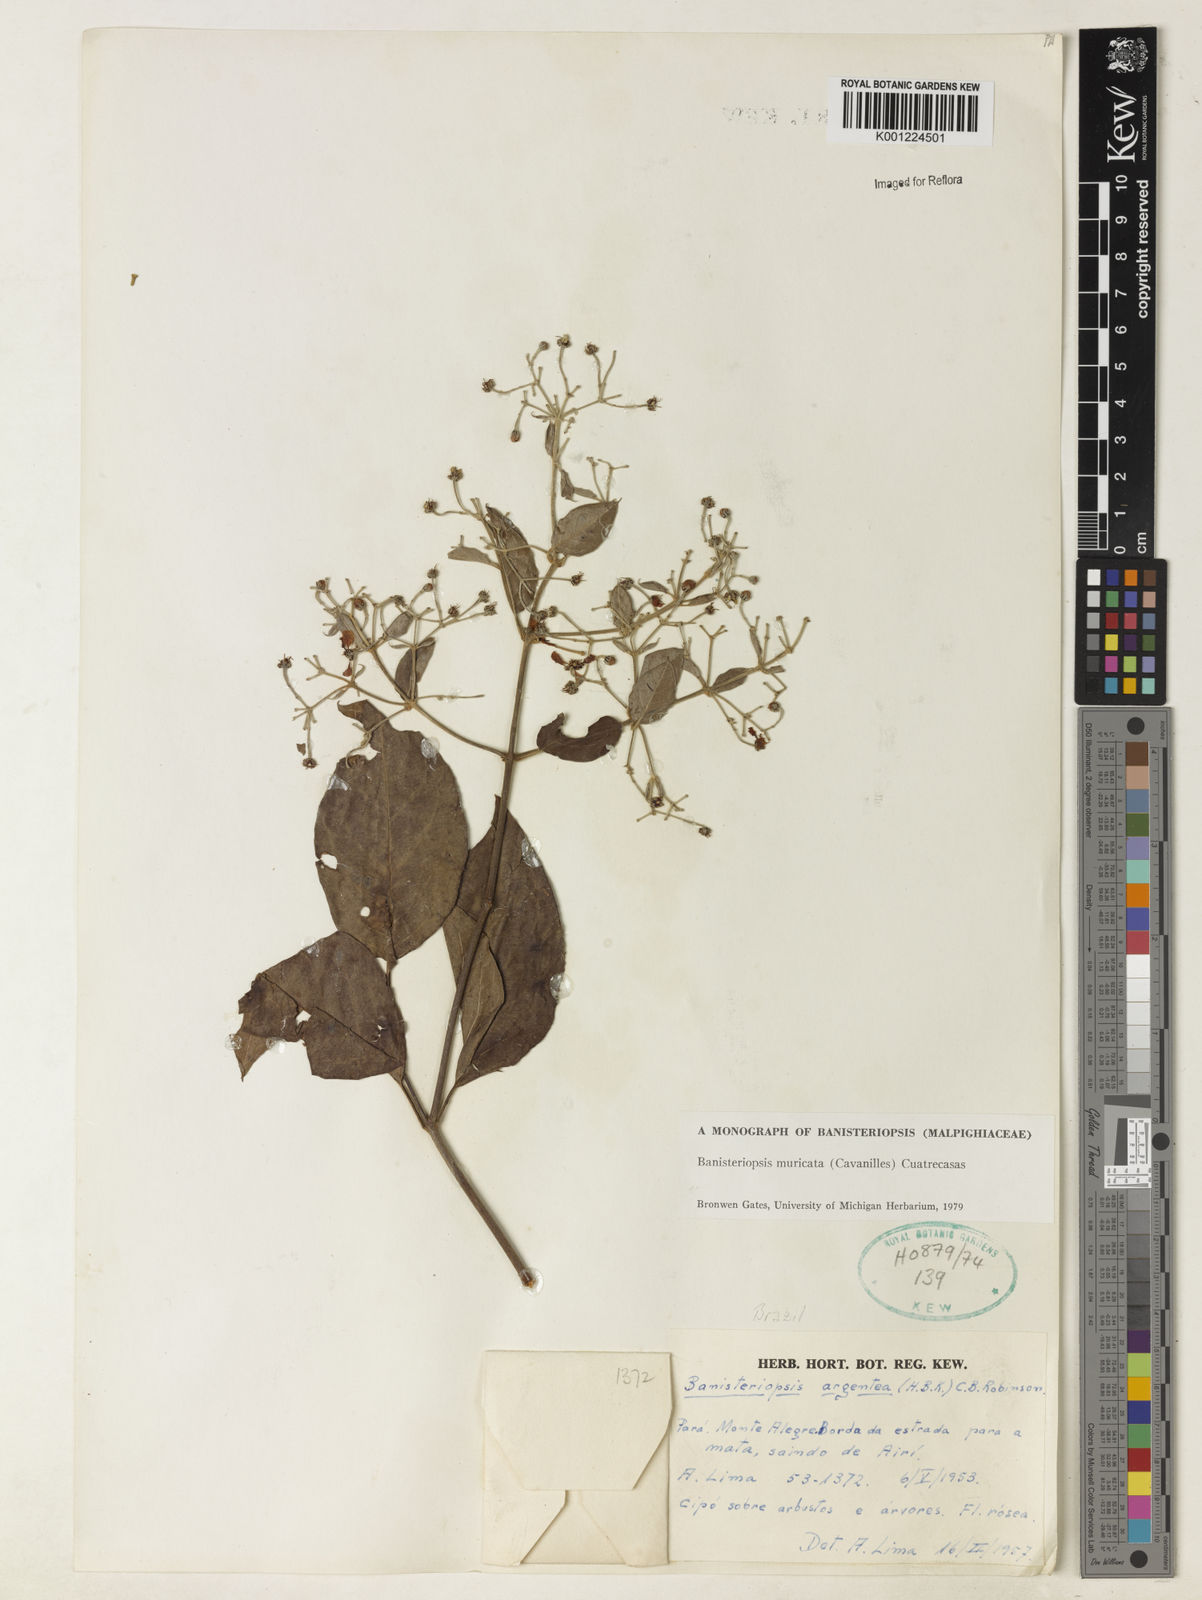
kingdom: Plantae
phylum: Tracheophyta
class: Magnoliopsida
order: Malpighiales
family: Malpighiaceae
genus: Banisteriopsis
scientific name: Banisteriopsis muricata
